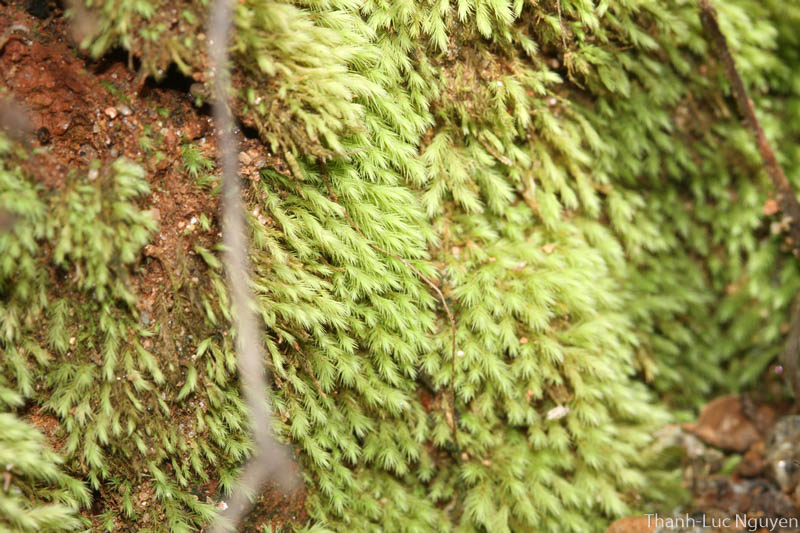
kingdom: Plantae
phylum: Bryophyta
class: Bryopsida
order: Bartramiales
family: Bartramiaceae
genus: Philonotis
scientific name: Philonotis pseudomollis
